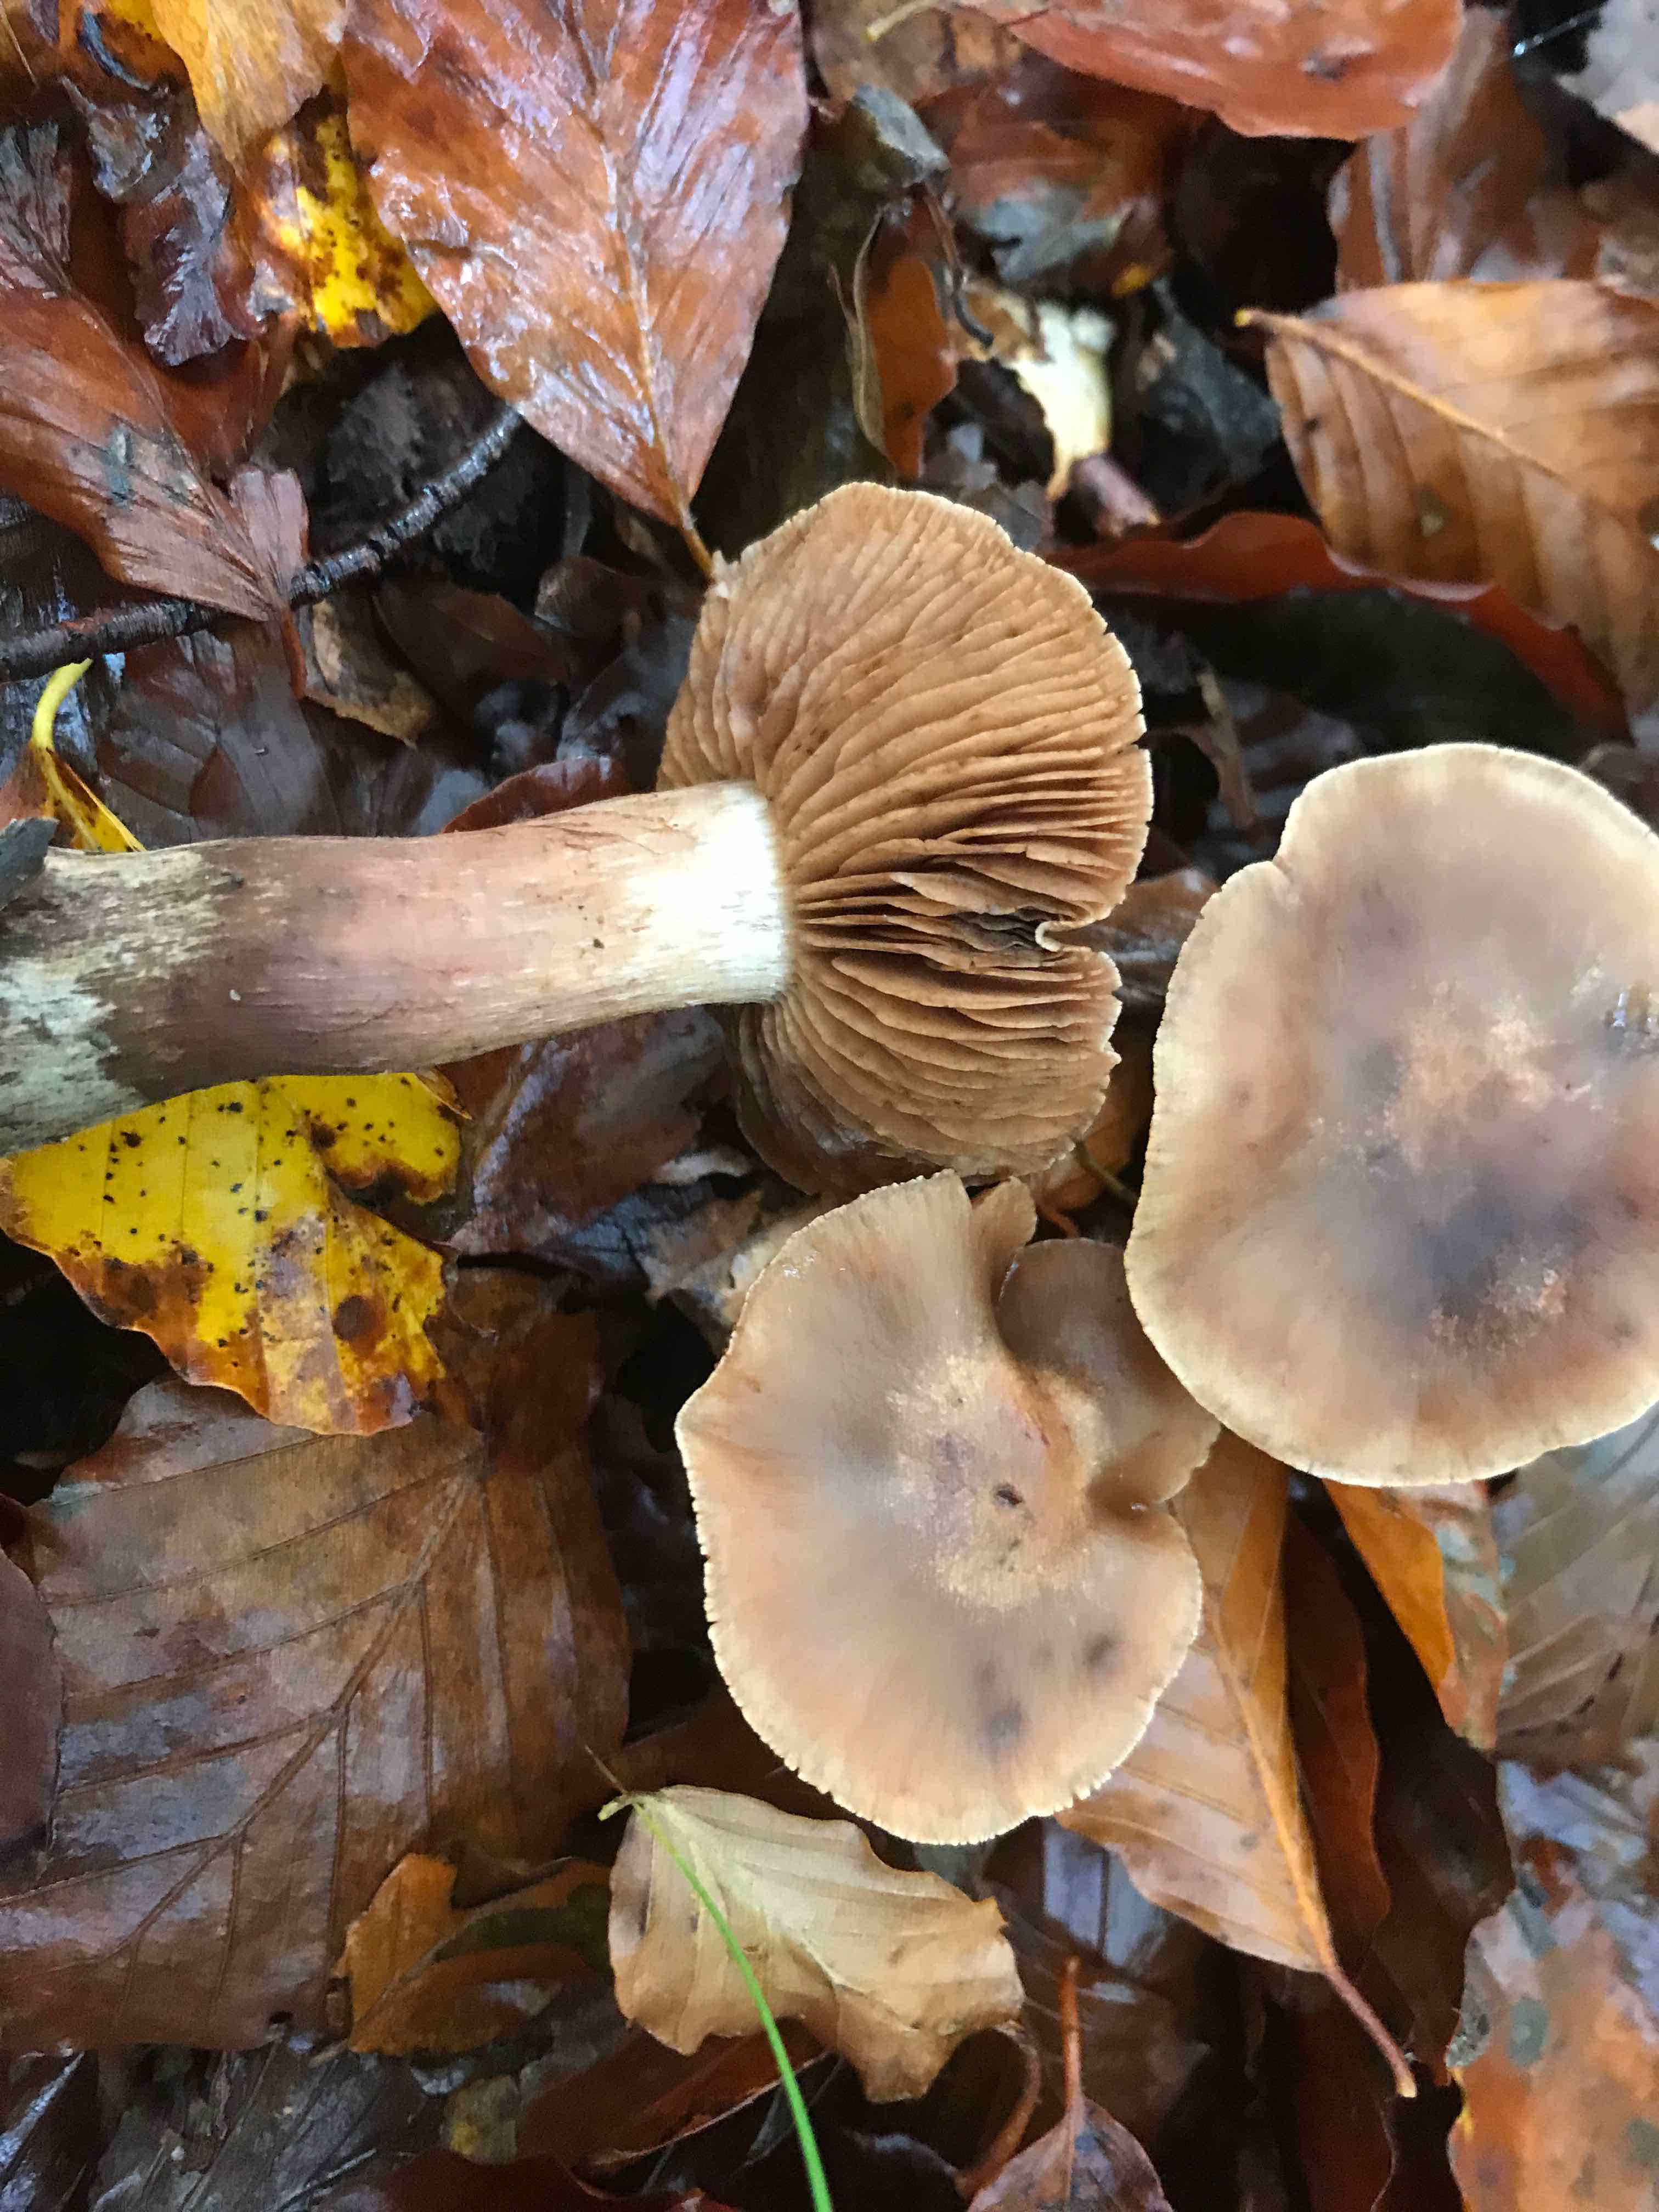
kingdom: Fungi
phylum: Basidiomycota
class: Agaricomycetes
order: Agaricales
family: Cortinariaceae
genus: Cortinarius
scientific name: Cortinarius
